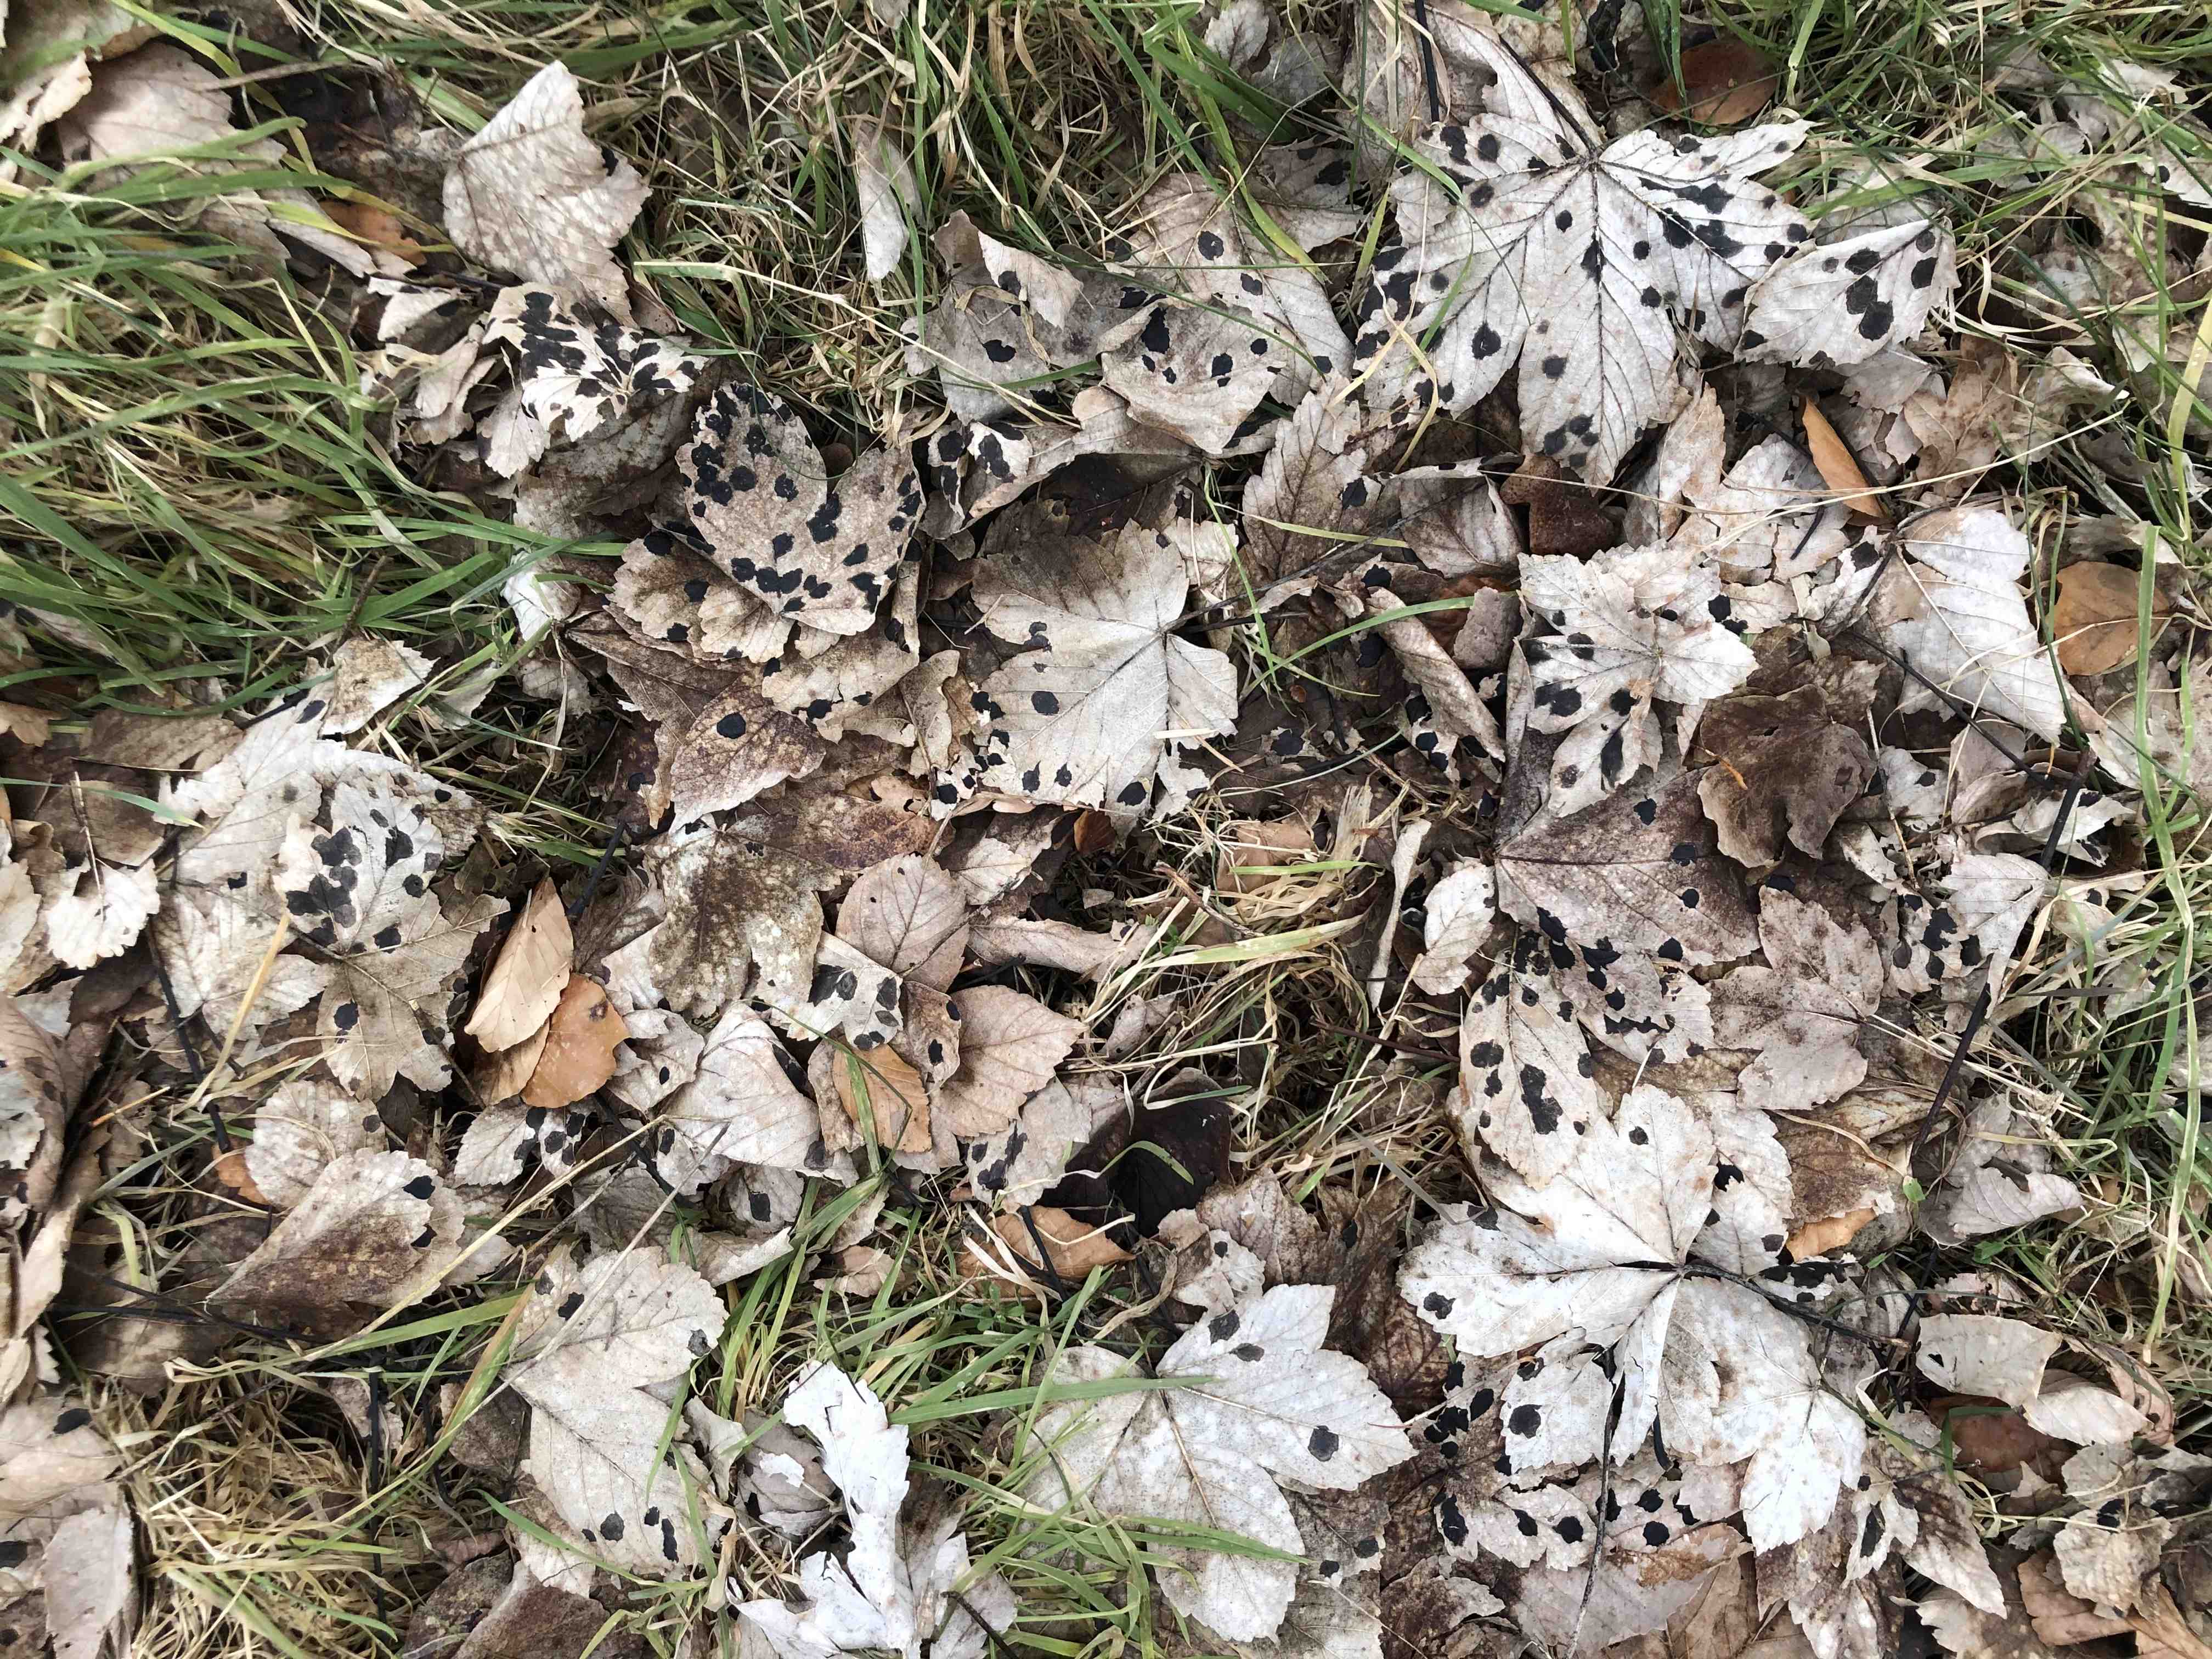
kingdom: Fungi
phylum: Ascomycota
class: Leotiomycetes
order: Rhytismatales
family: Rhytismataceae
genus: Rhytisma
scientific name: Rhytisma acerinum
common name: ahorn-rynkeplet
